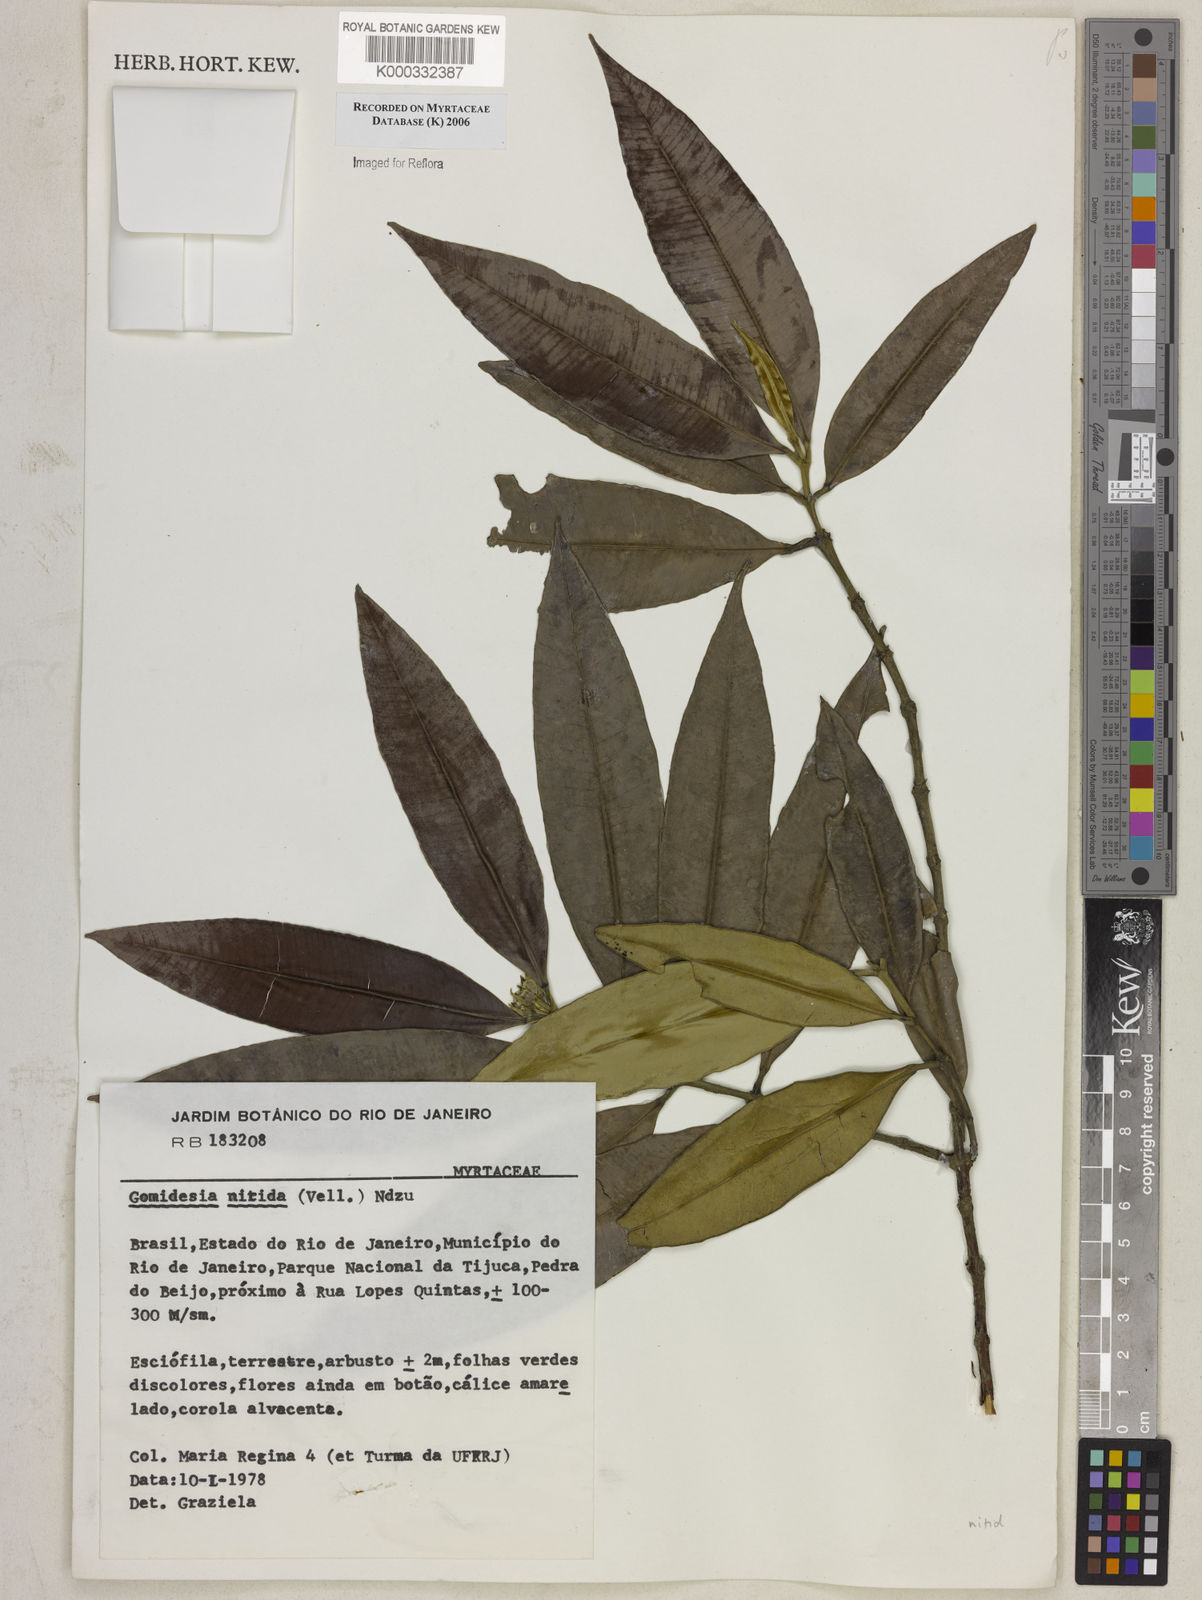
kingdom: Plantae
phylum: Tracheophyta
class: Magnoliopsida
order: Myrtales
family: Myrtaceae
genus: Myrcia
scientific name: Myrcia subsericea
